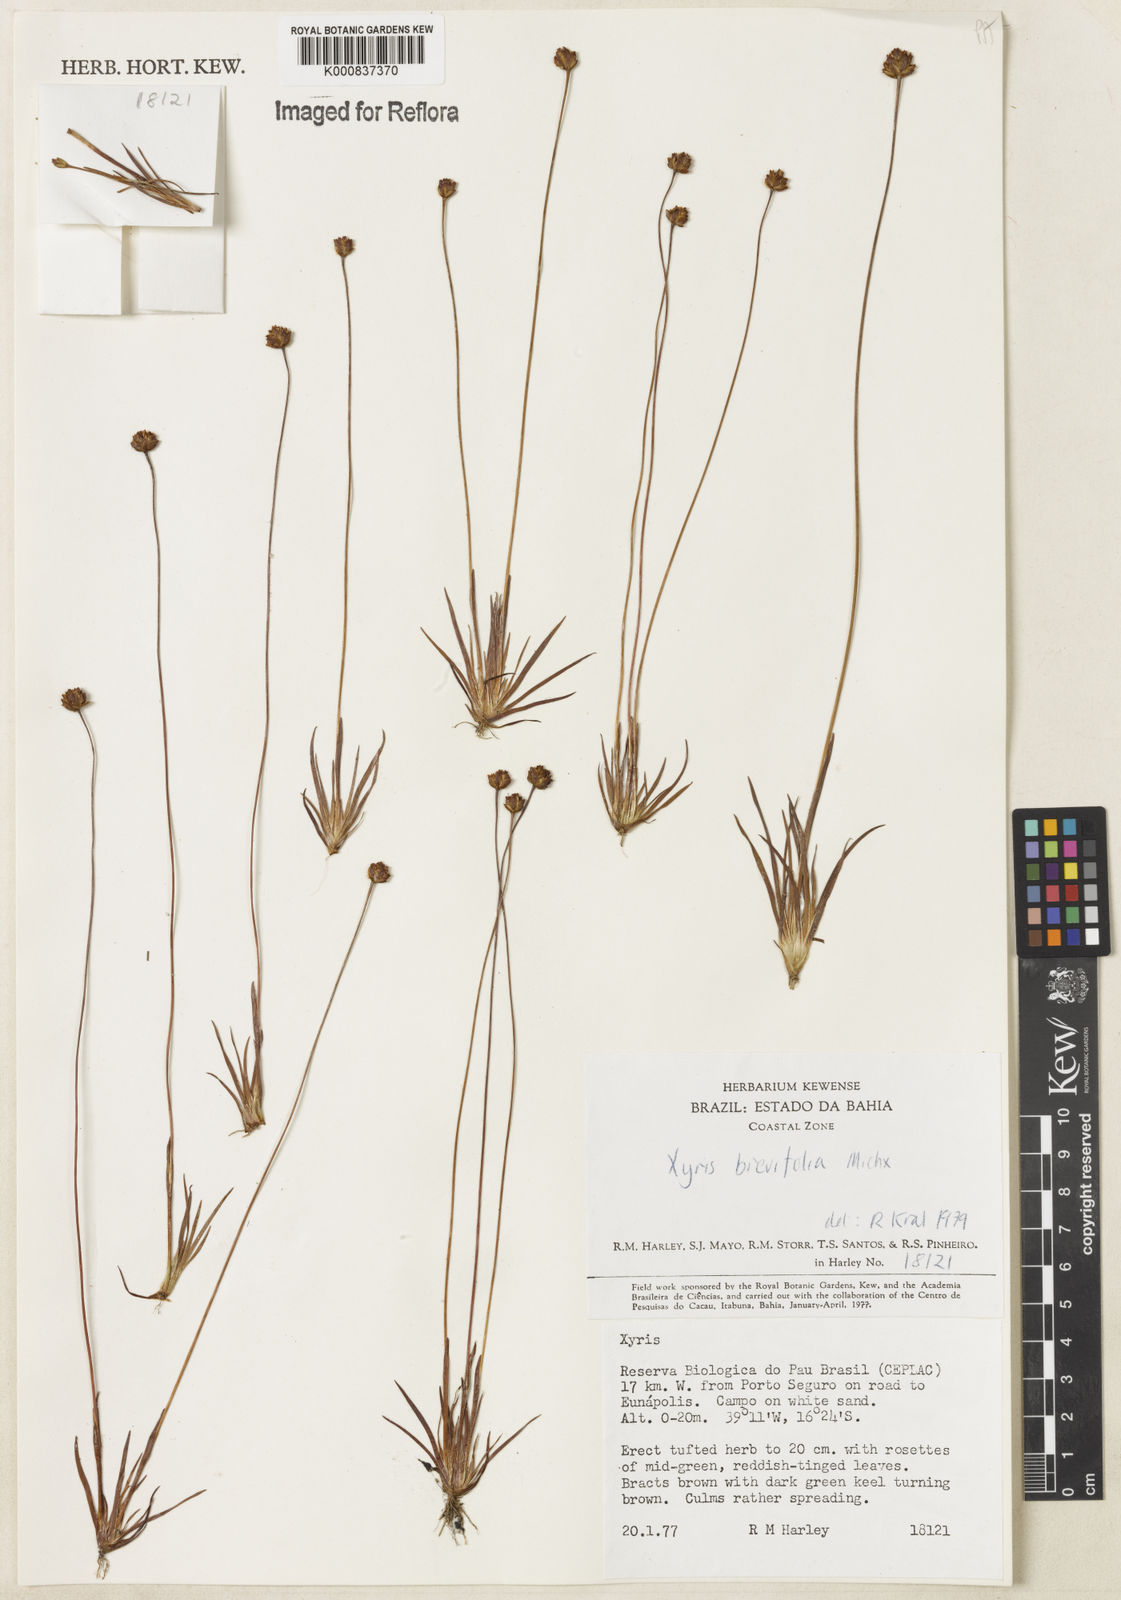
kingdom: Plantae
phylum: Tracheophyta
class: Liliopsida
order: Poales
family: Xyridaceae
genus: Xyris
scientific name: Xyris brevifolia
